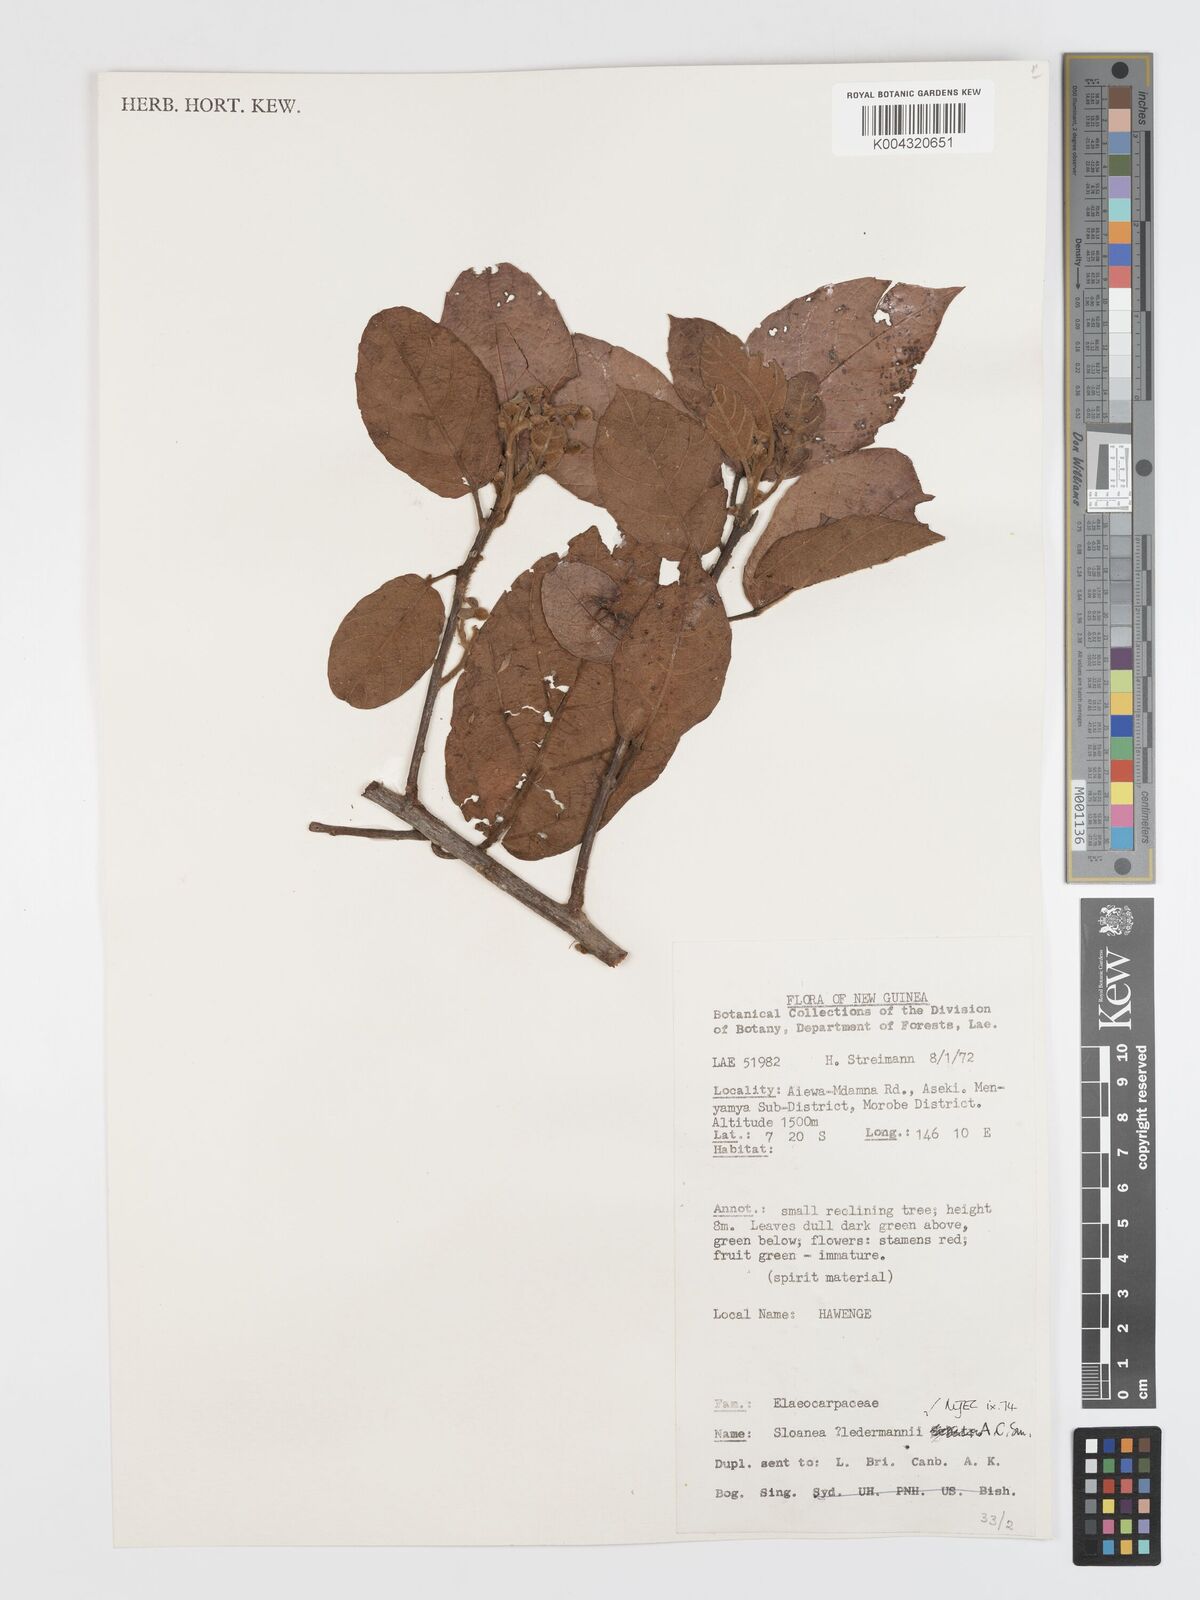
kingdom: Plantae
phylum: Tracheophyta
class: Magnoliopsida
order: Oxalidales
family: Elaeocarpaceae
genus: Sloanea
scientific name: Sloanea ledermannii
